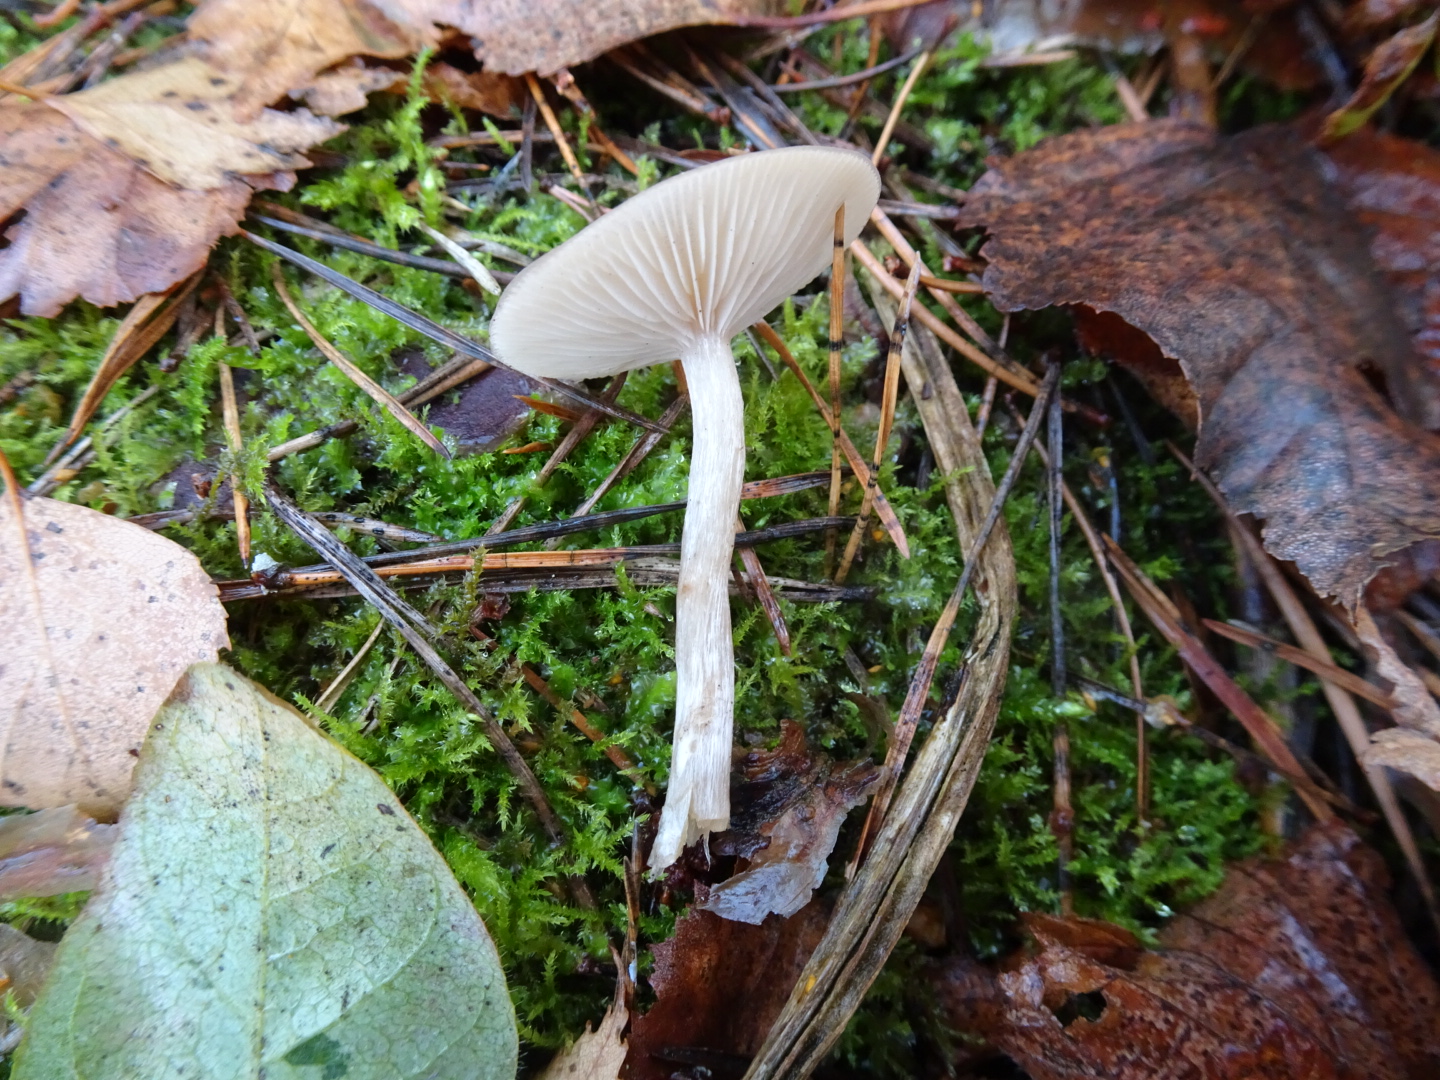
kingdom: Fungi
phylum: Basidiomycota
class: Agaricomycetes
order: Agaricales
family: Tricholomataceae
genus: Clitocybe
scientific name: Clitocybe fragrans
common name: vellugtende tragthat
